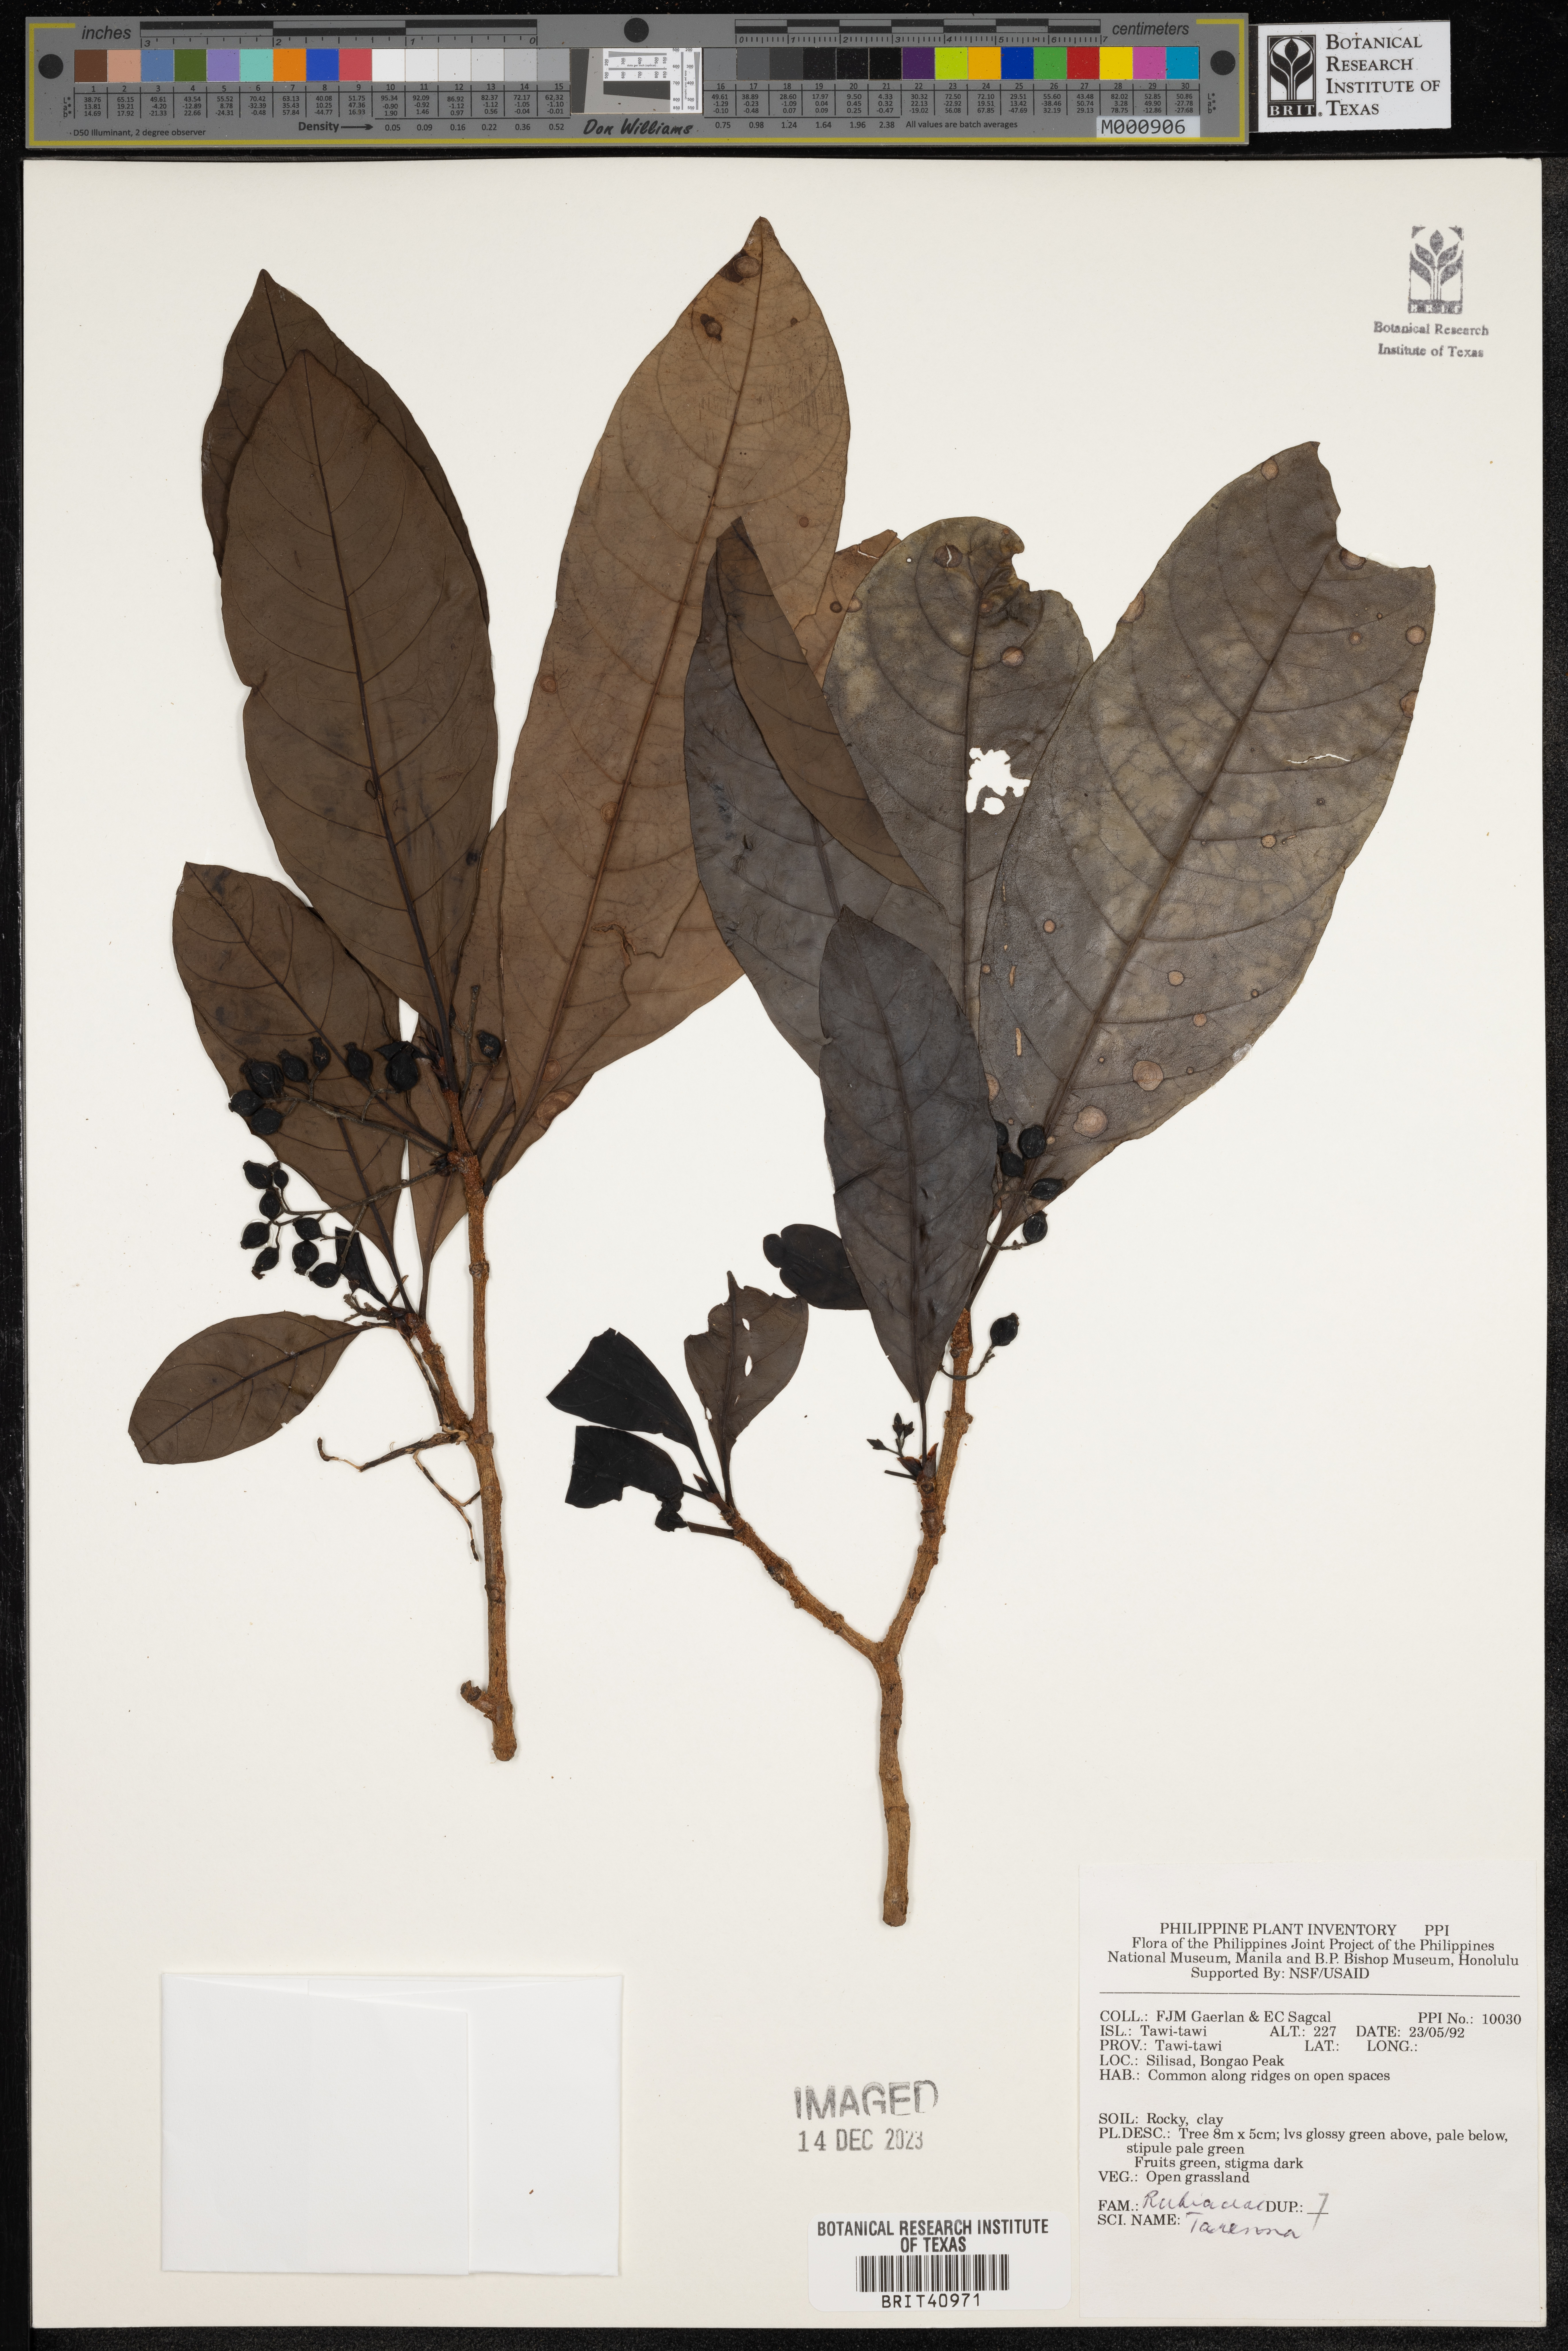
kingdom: Plantae
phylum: Tracheophyta
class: Magnoliopsida
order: Gentianales
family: Rubiaceae
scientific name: Rubiaceae
